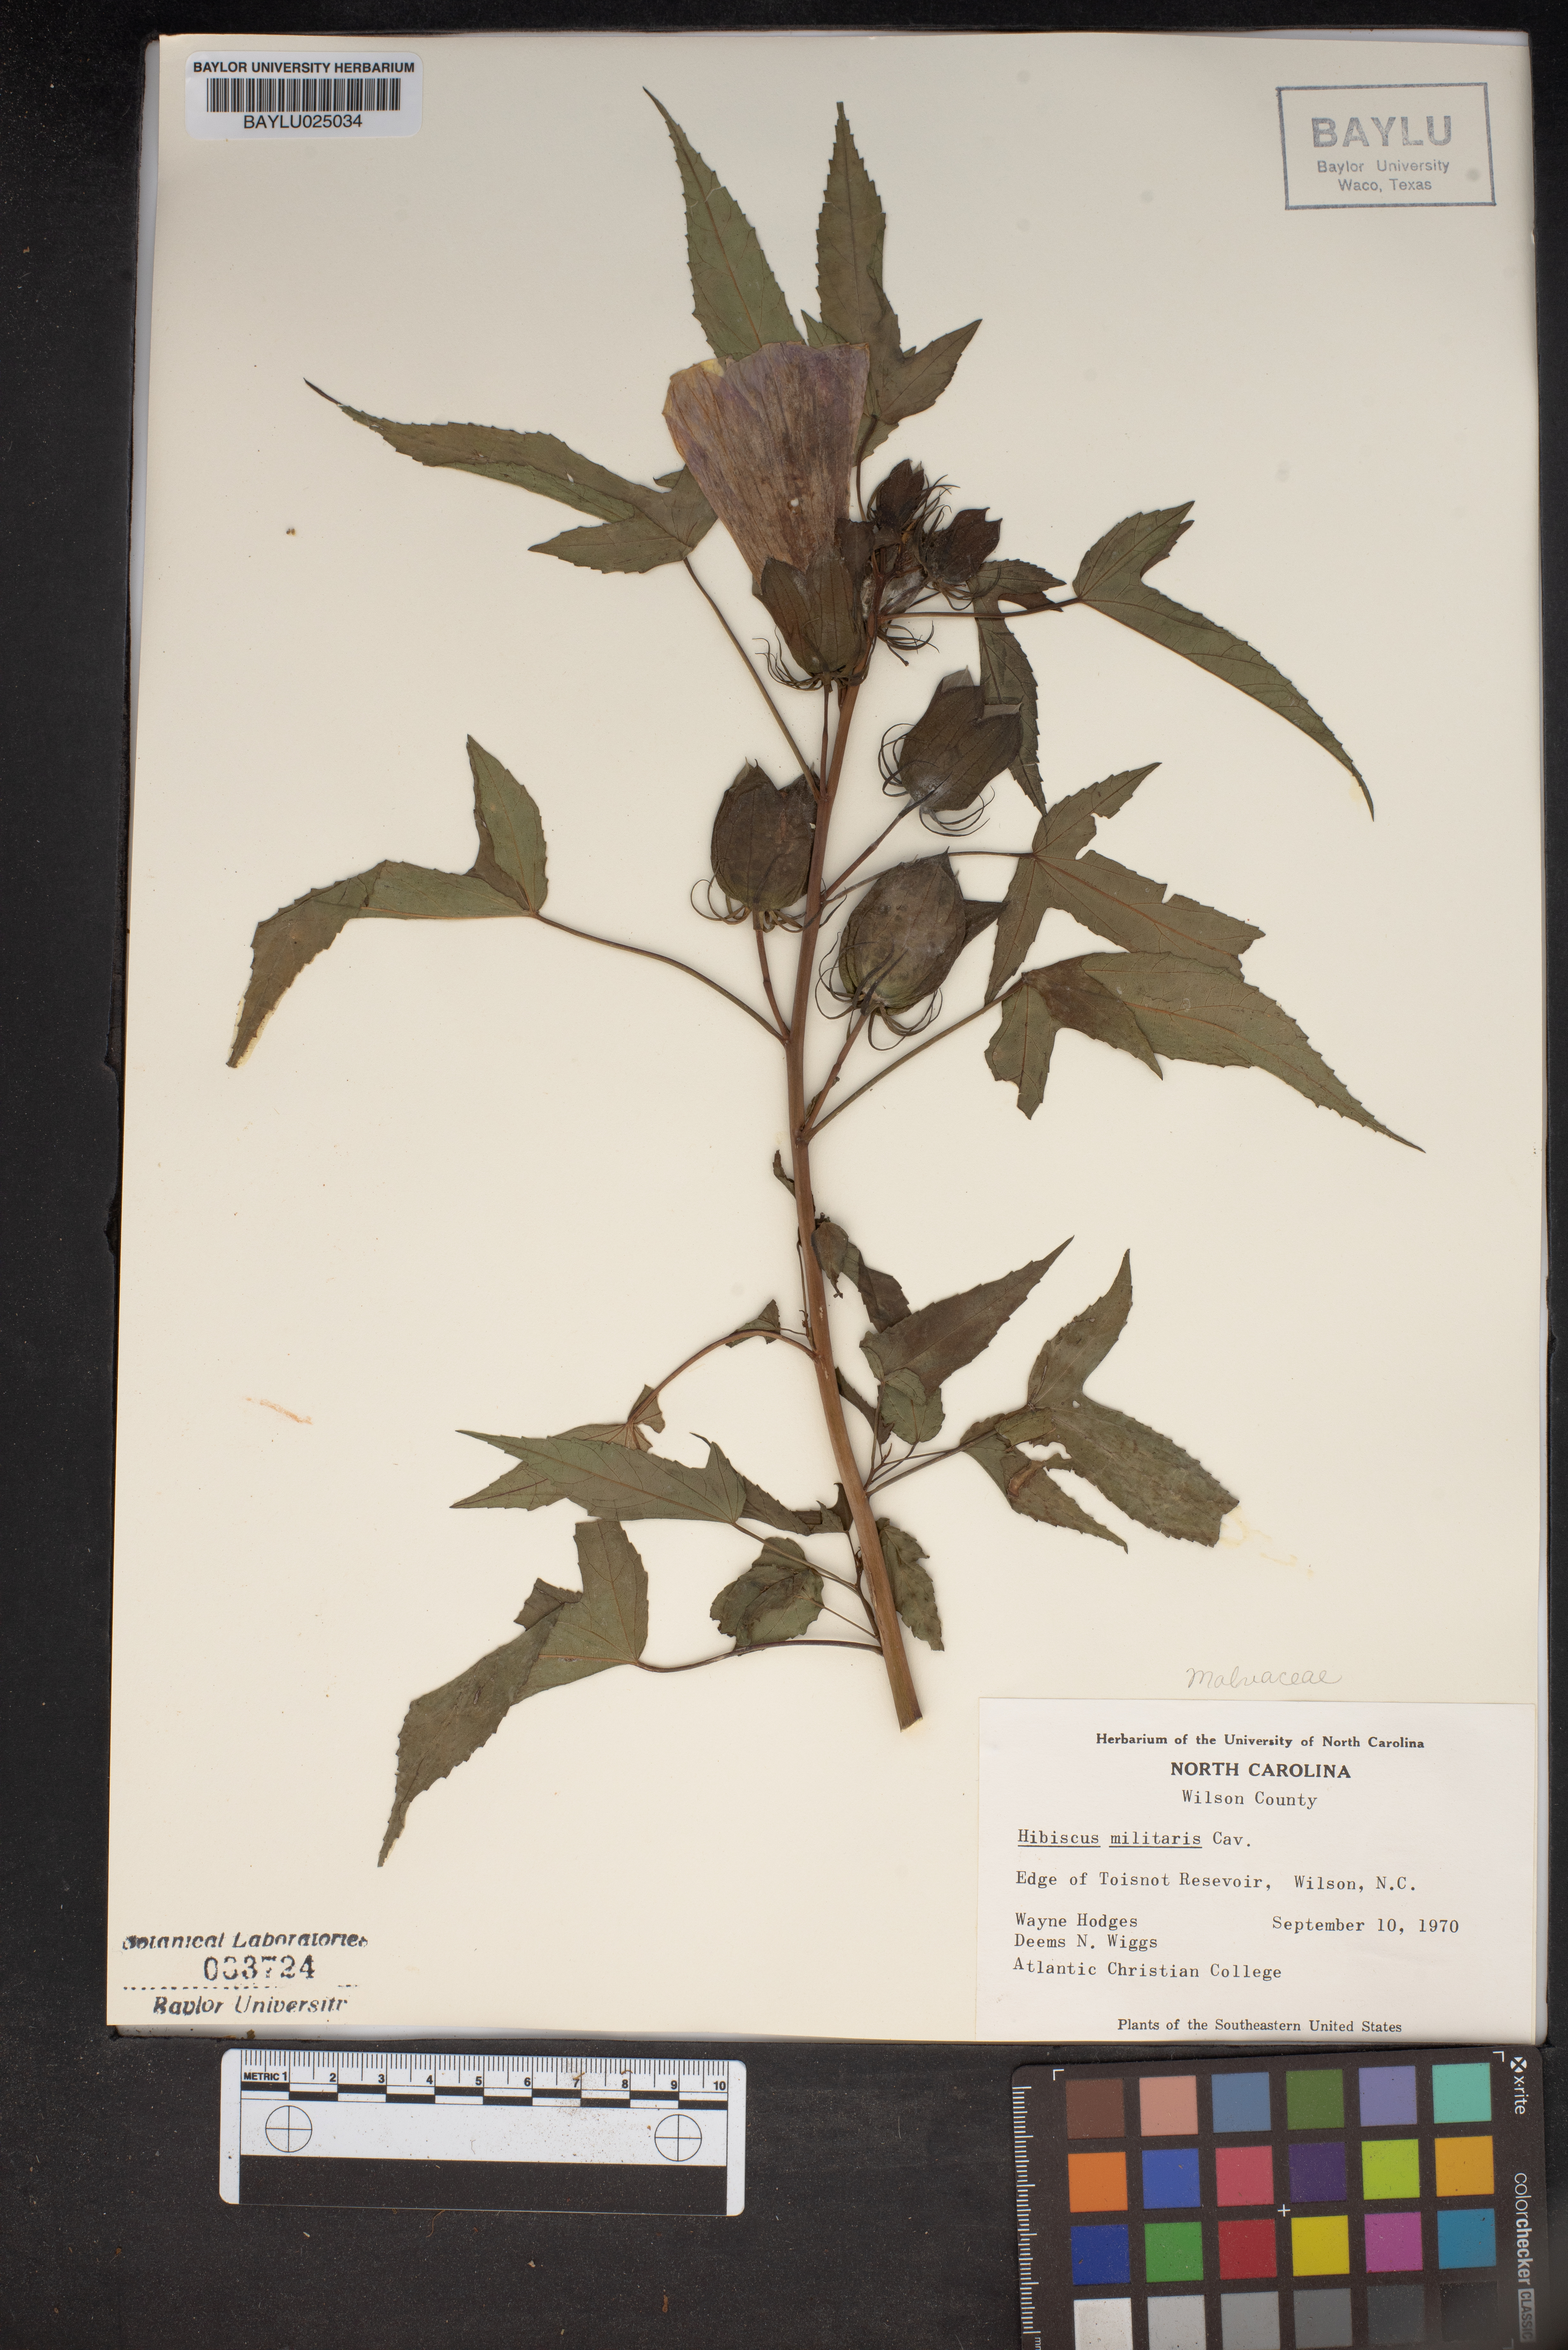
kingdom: Plantae
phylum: Tracheophyta
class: Magnoliopsida
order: Malvales
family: Malvaceae
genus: Hibiscus
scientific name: Hibiscus laevis
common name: Scarlet rose-mallow
